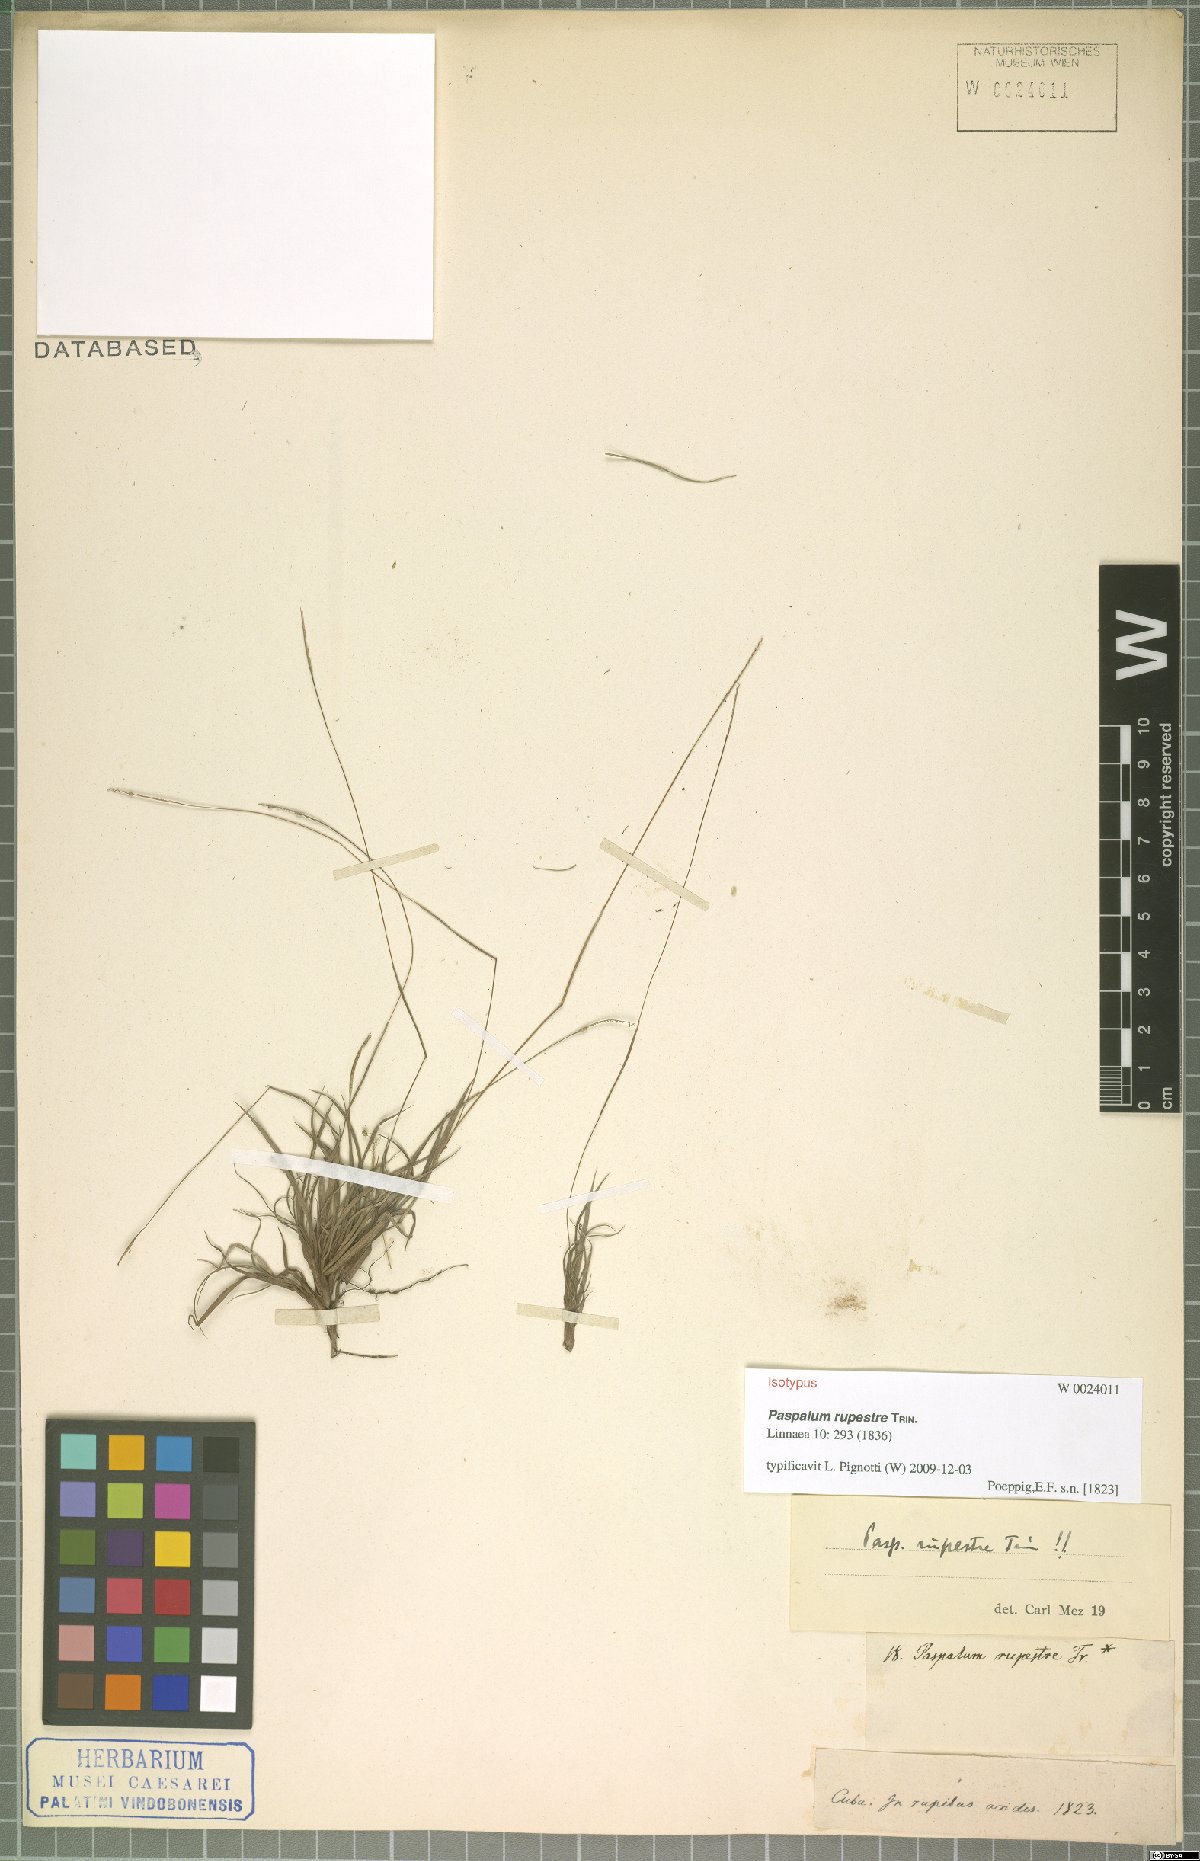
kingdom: Plantae
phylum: Tracheophyta
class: Liliopsida
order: Poales
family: Poaceae
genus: Paspalum
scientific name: Paspalum rupestre
